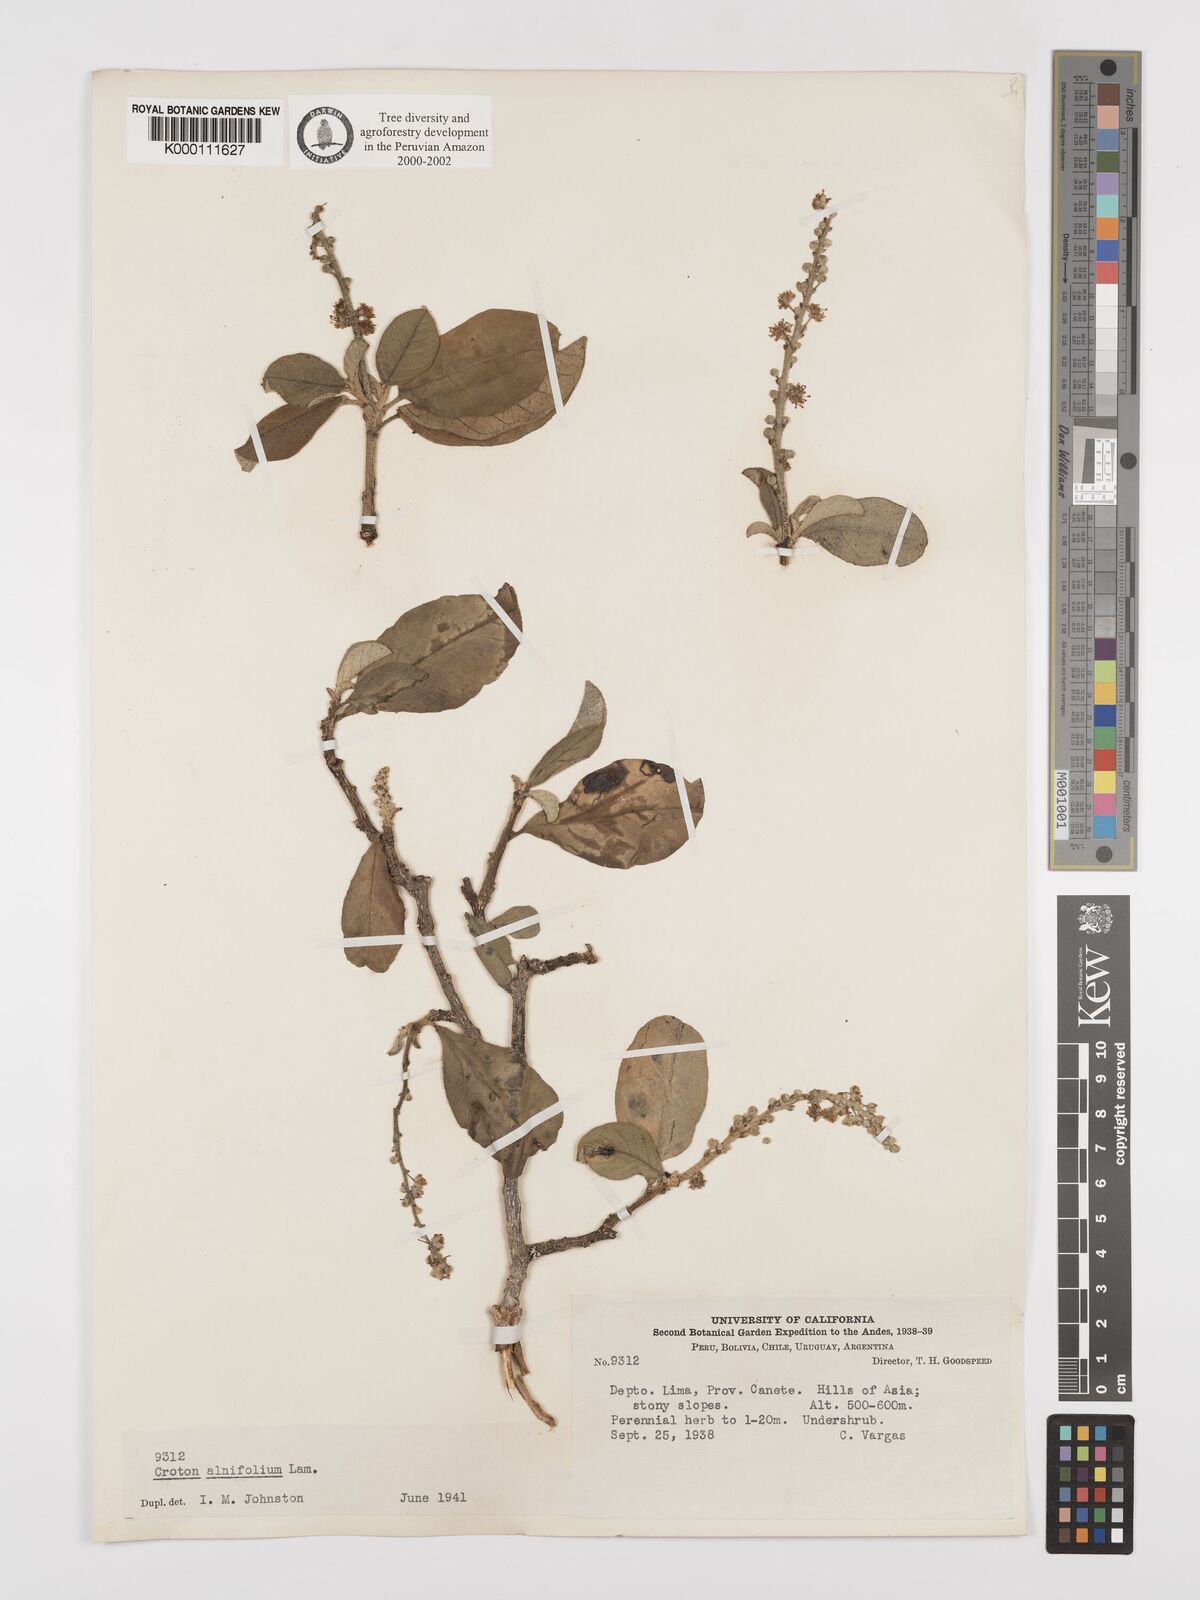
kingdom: Plantae
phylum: Tracheophyta
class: Magnoliopsida
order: Malpighiales
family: Euphorbiaceae
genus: Croton
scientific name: Croton alnifolius
